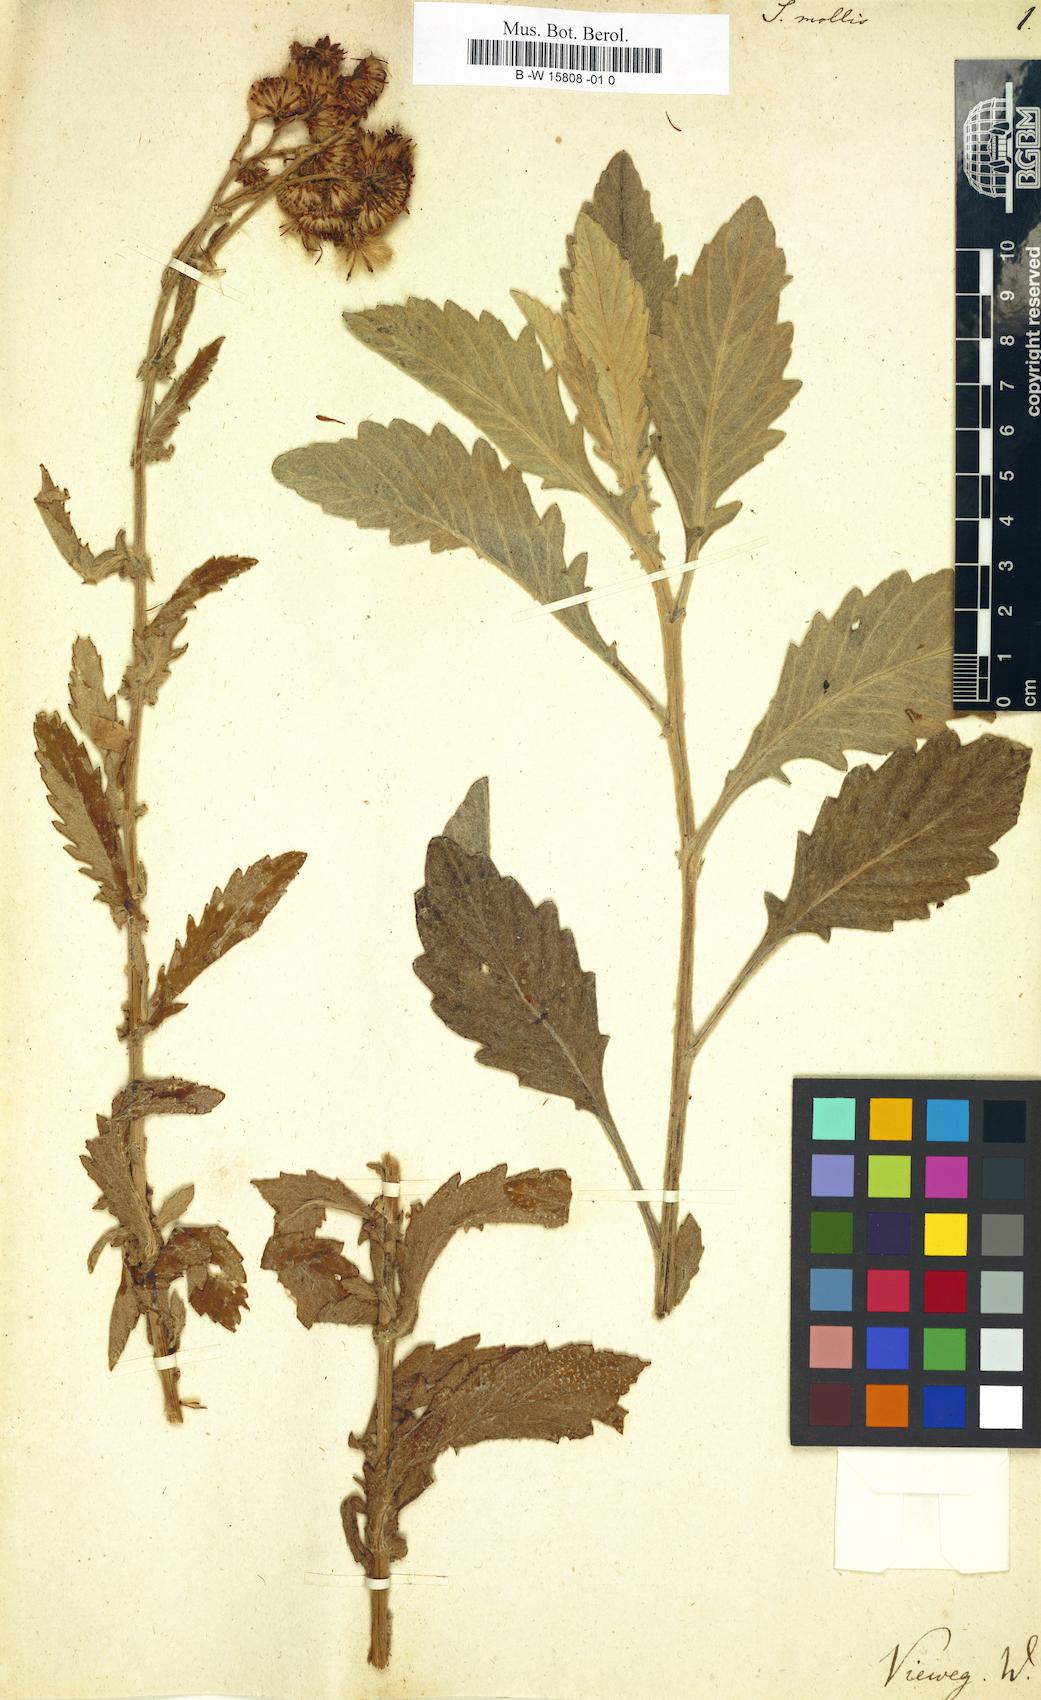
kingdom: Plantae
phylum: Tracheophyta
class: Magnoliopsida
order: Asterales
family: Asteraceae
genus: Jacobaea
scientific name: Jacobaea mollis
